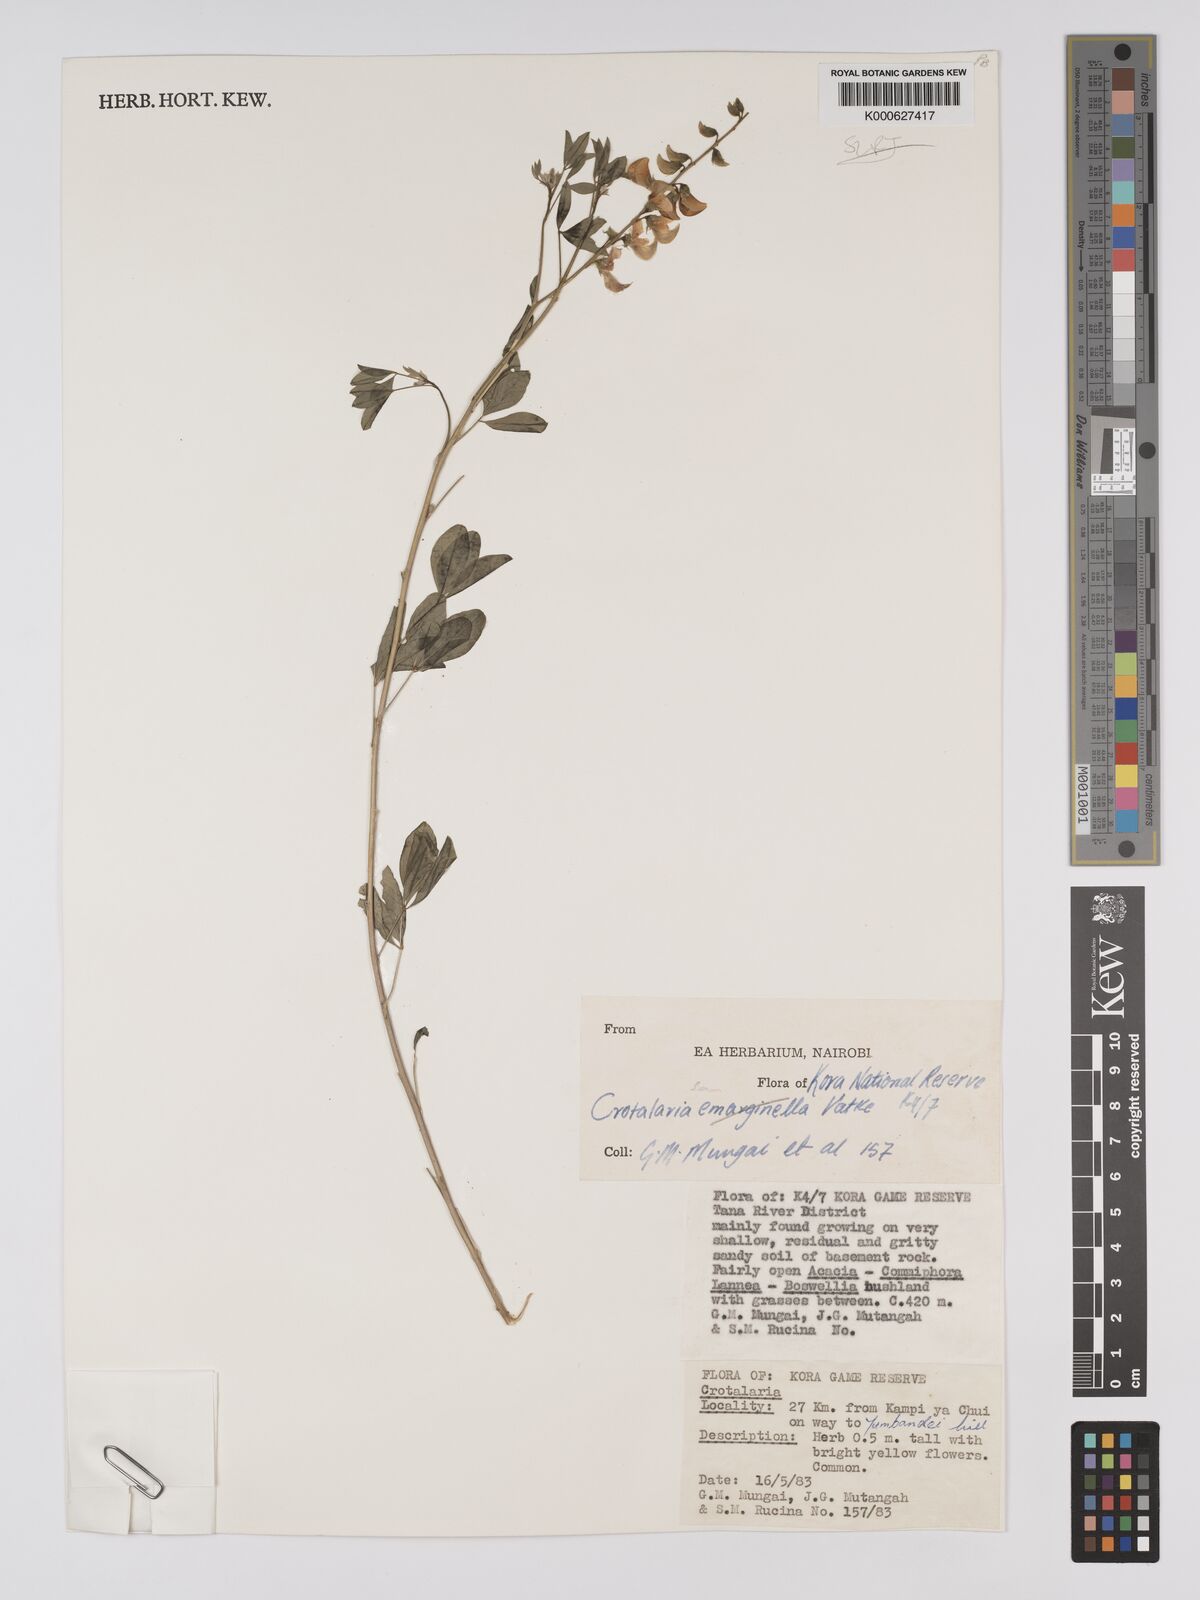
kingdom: Plantae
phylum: Tracheophyta
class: Magnoliopsida
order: Fabales
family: Fabaceae
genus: Crotalaria
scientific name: Crotalaria somalensis
